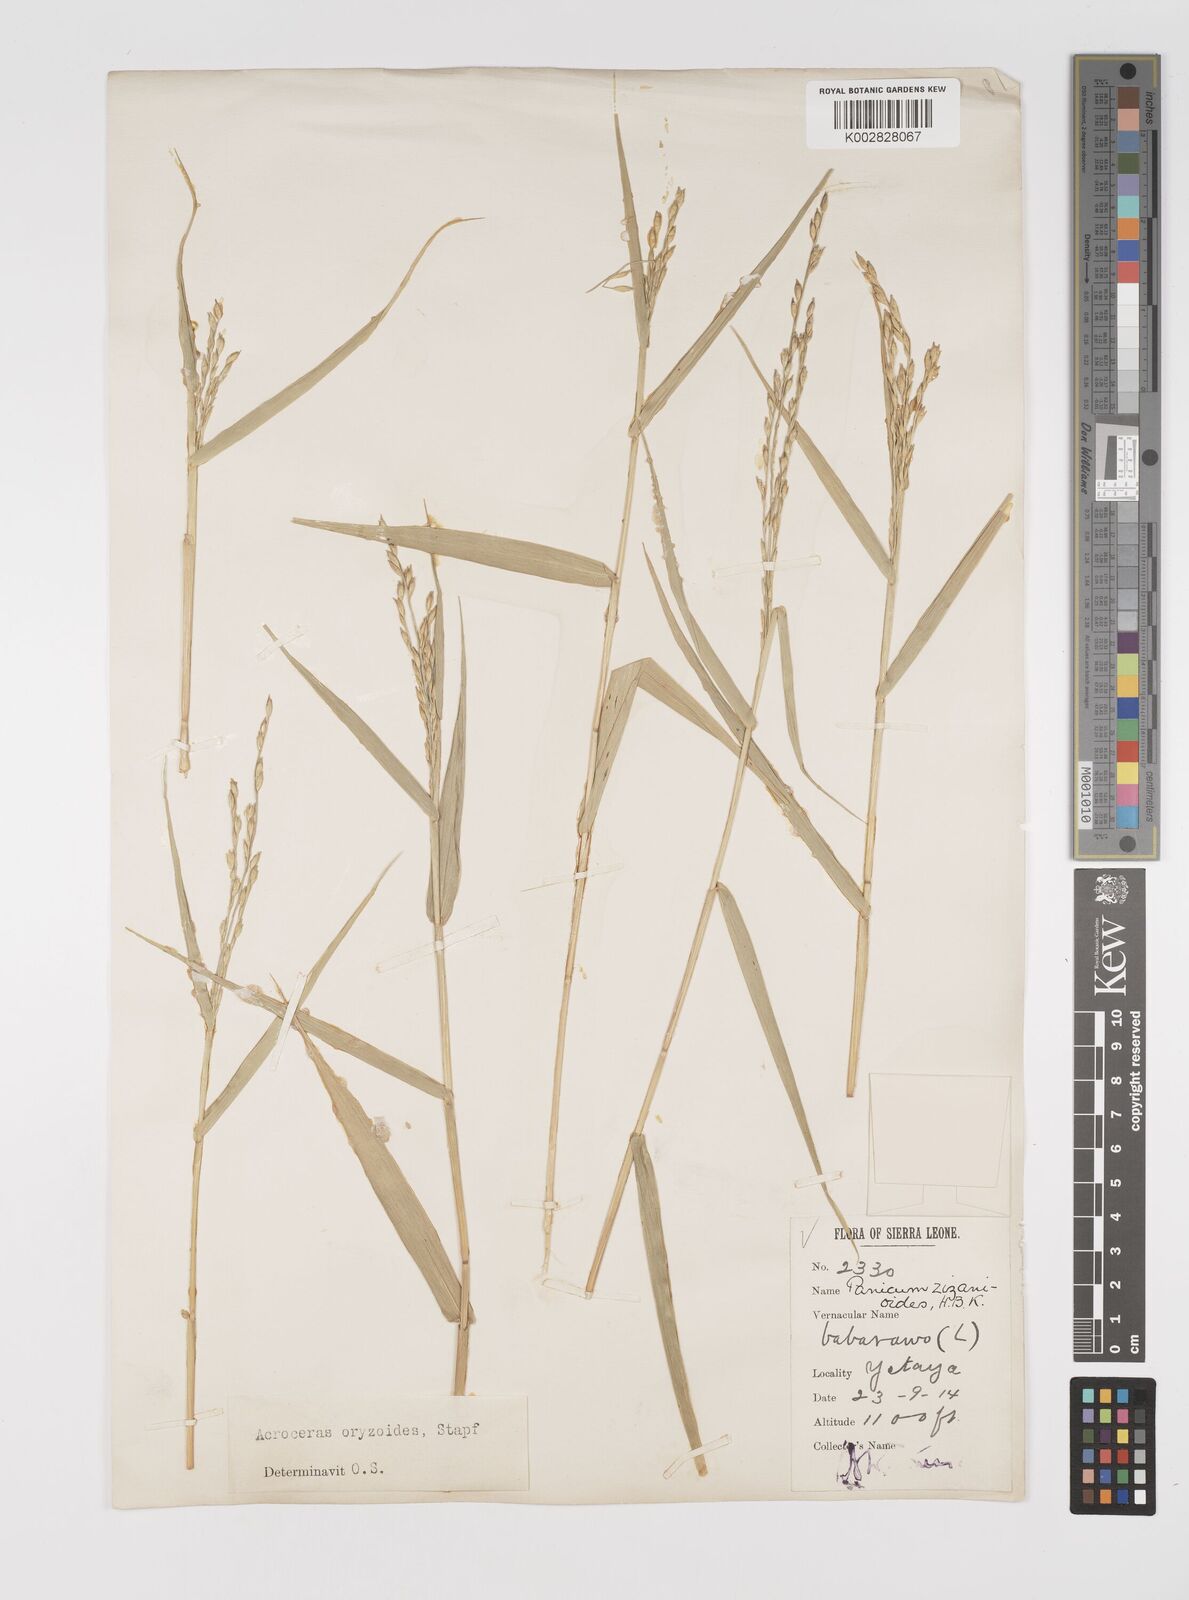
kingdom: Plantae
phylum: Tracheophyta
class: Liliopsida
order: Poales
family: Poaceae
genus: Acroceras
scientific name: Acroceras amplectens
